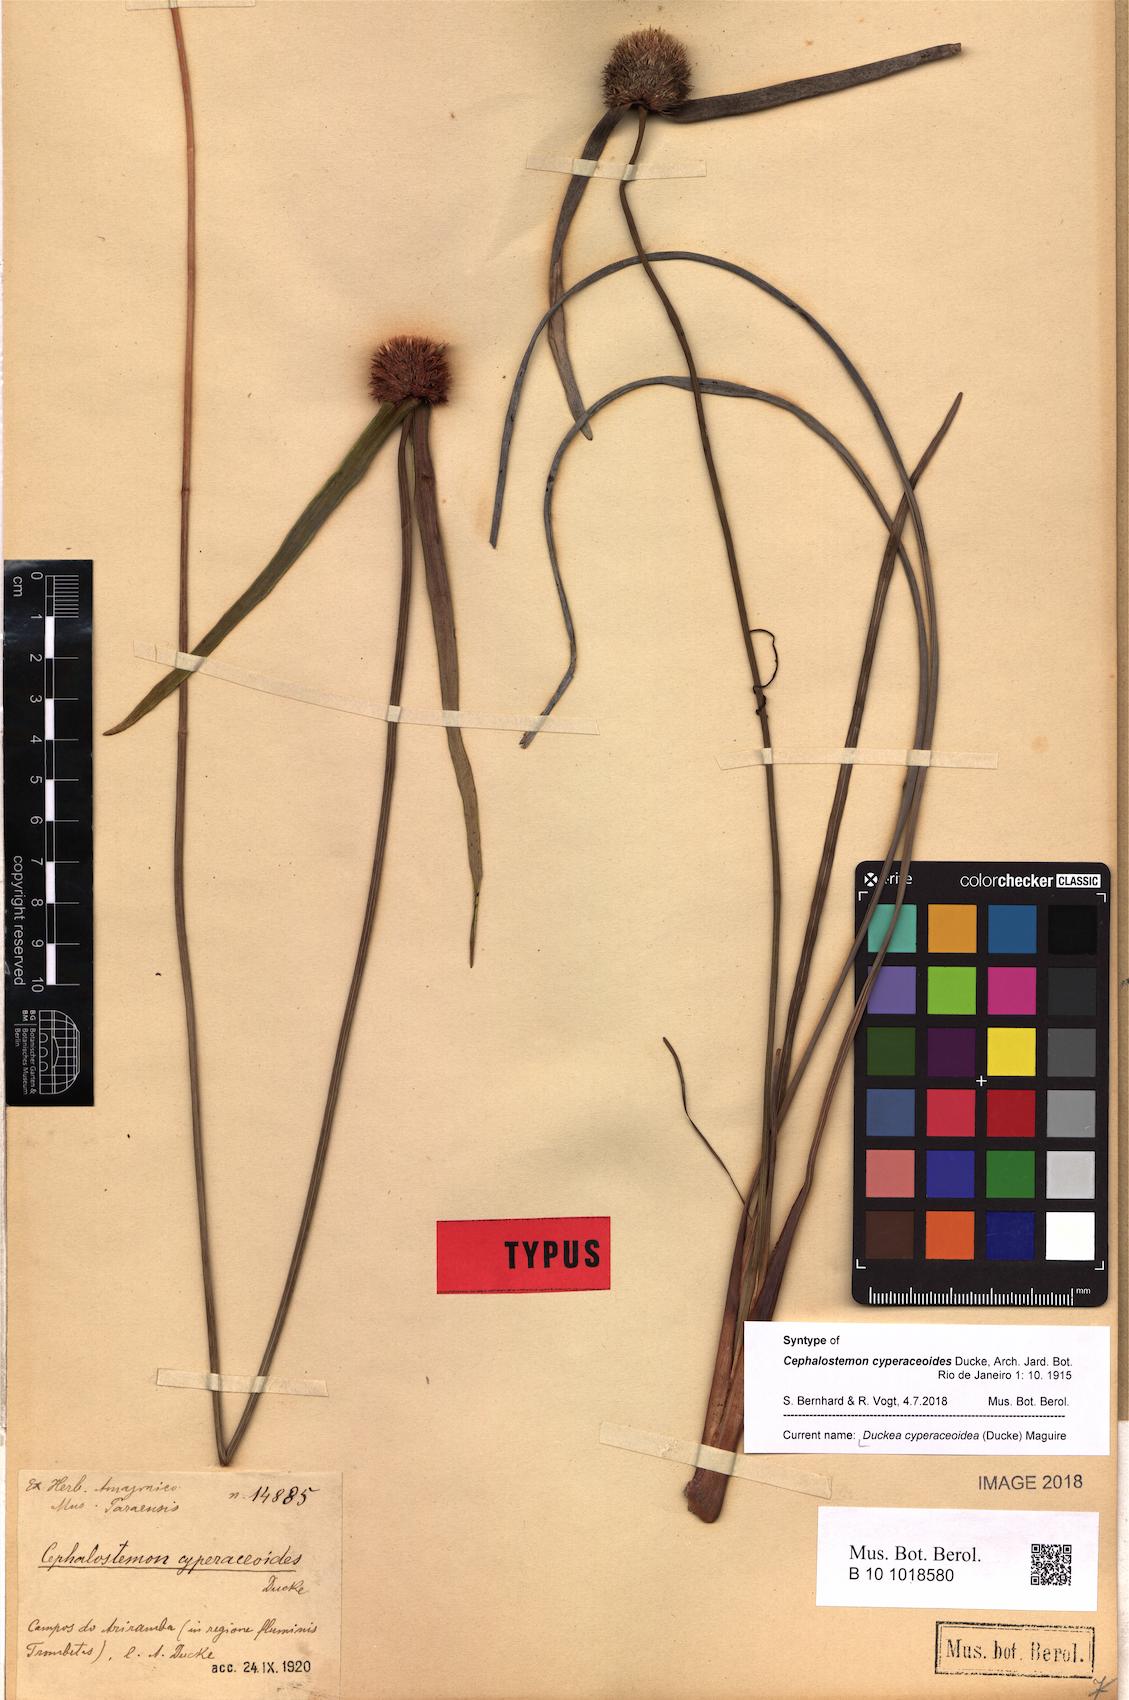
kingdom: Plantae
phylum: Tracheophyta
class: Liliopsida
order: Poales
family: Rapateaceae
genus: Duckea
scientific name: Duckea cyperaceoidea
